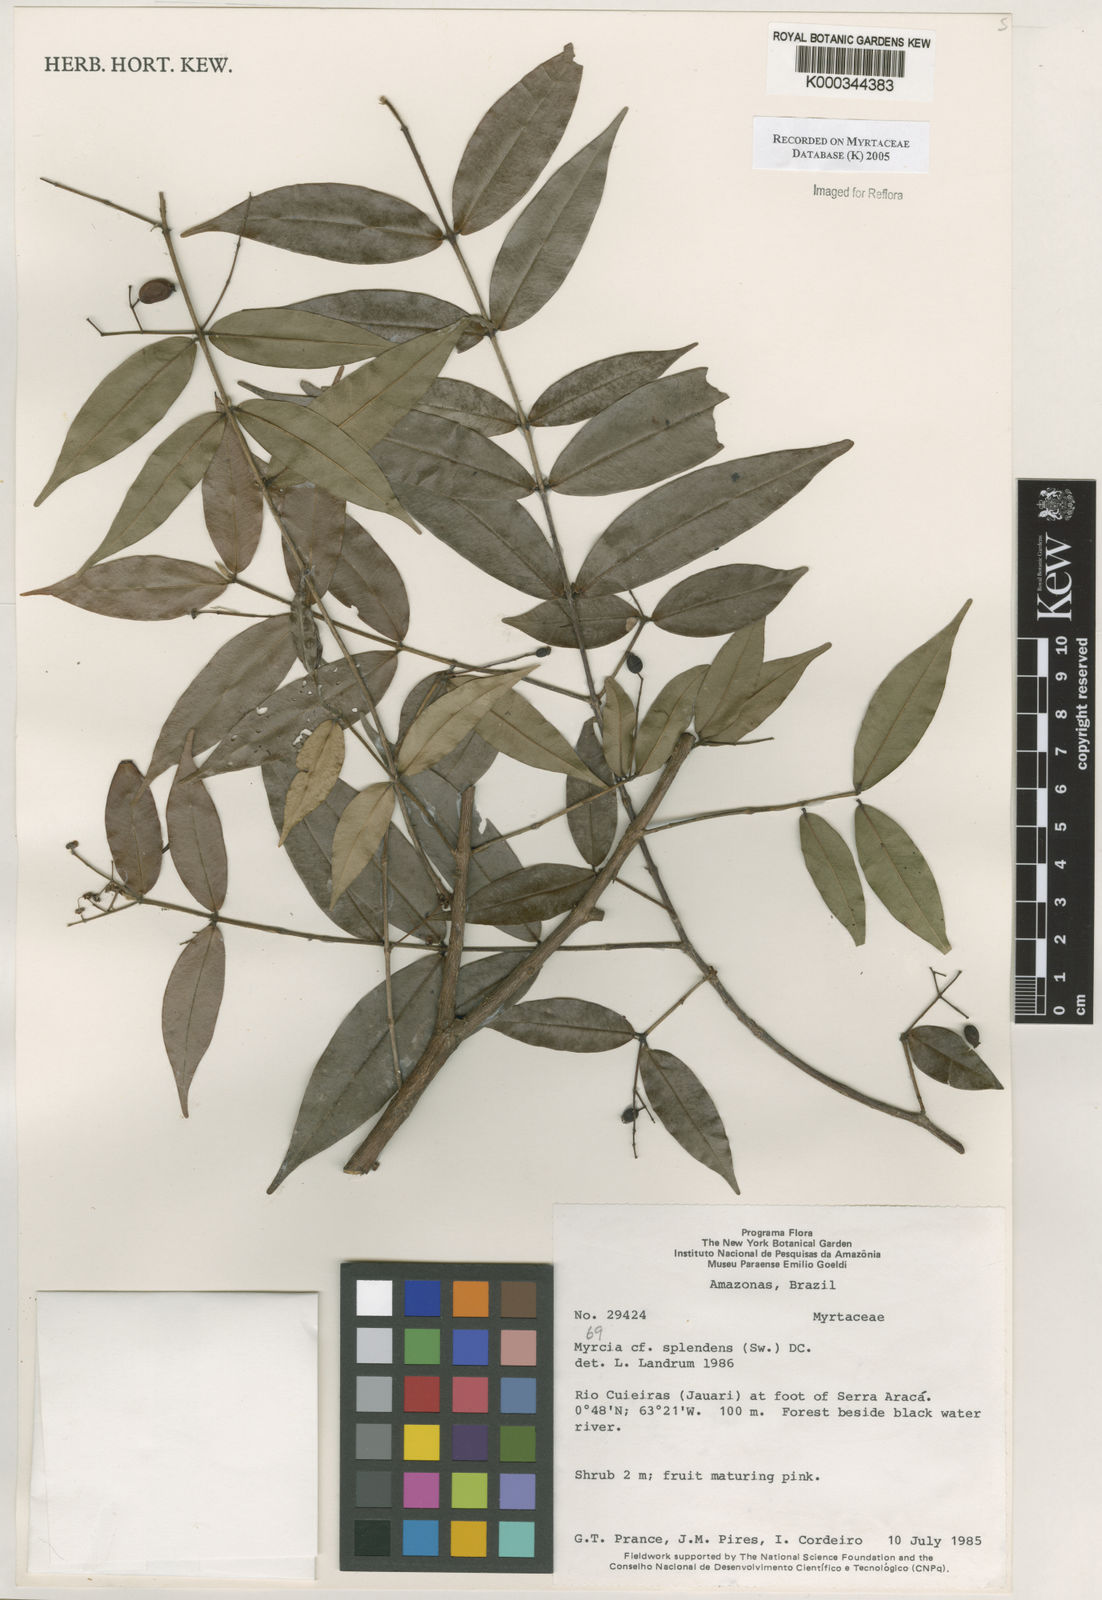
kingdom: Plantae
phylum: Tracheophyta
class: Magnoliopsida
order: Myrtales
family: Myrtaceae
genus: Myrcia
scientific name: Myrcia splendens
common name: Surinam cherry
